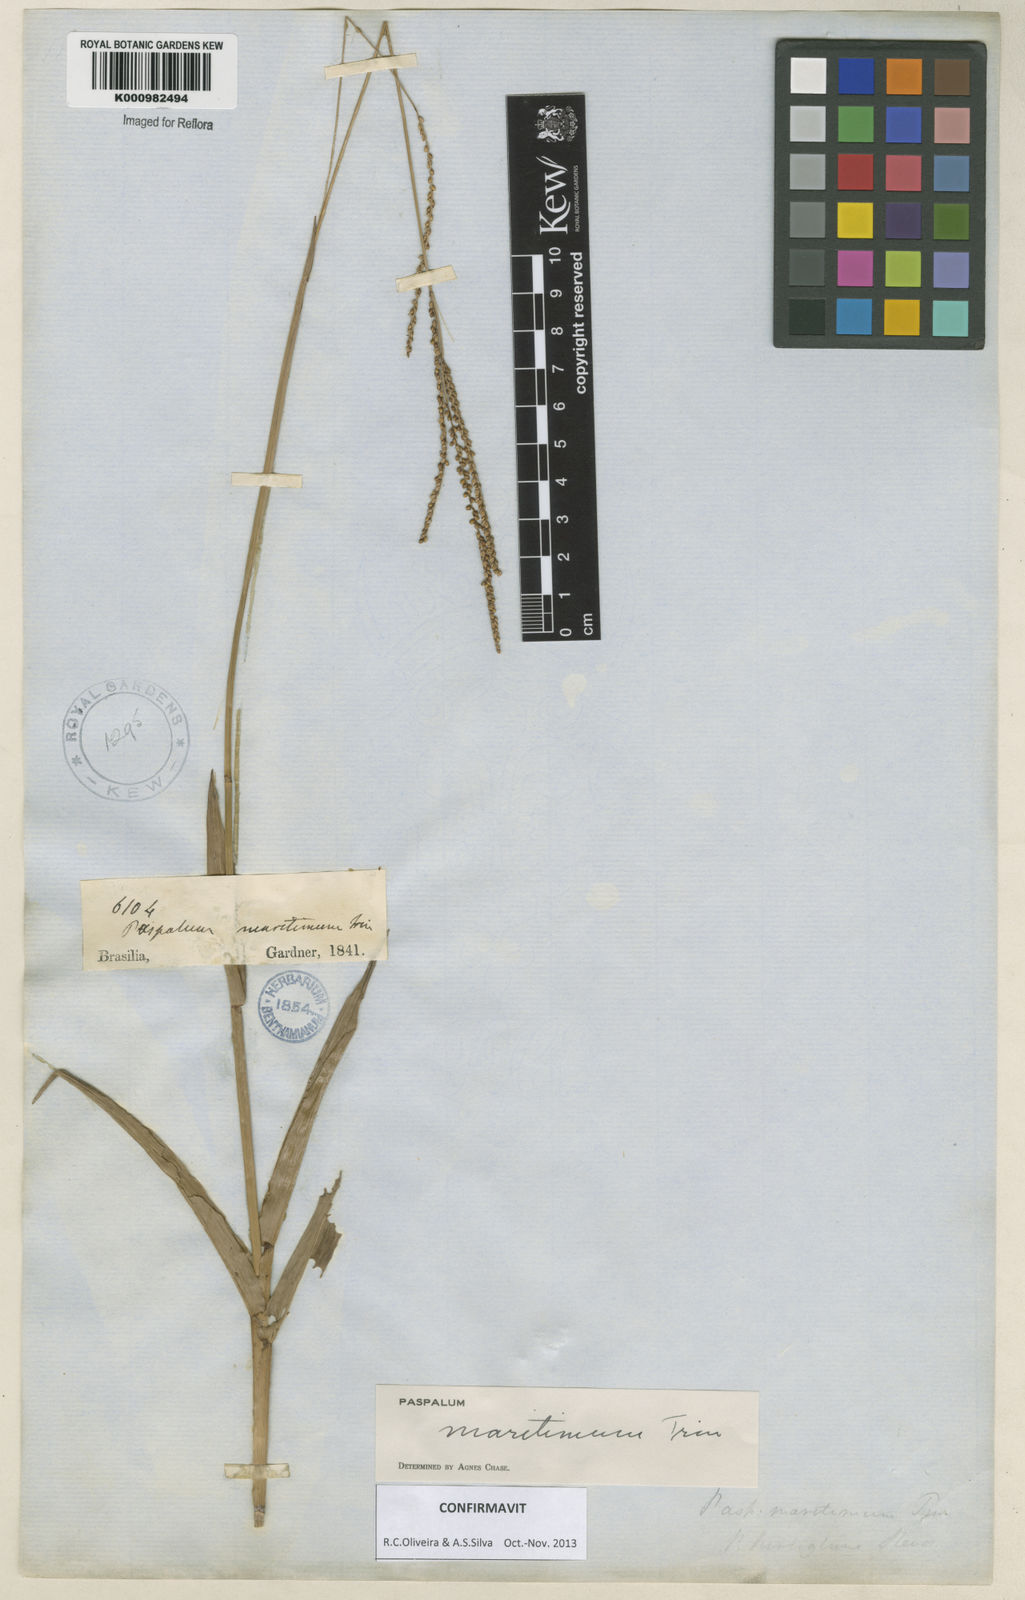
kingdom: Plantae
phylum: Tracheophyta
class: Liliopsida
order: Poales
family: Poaceae
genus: Paspalum
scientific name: Paspalum maritimum
